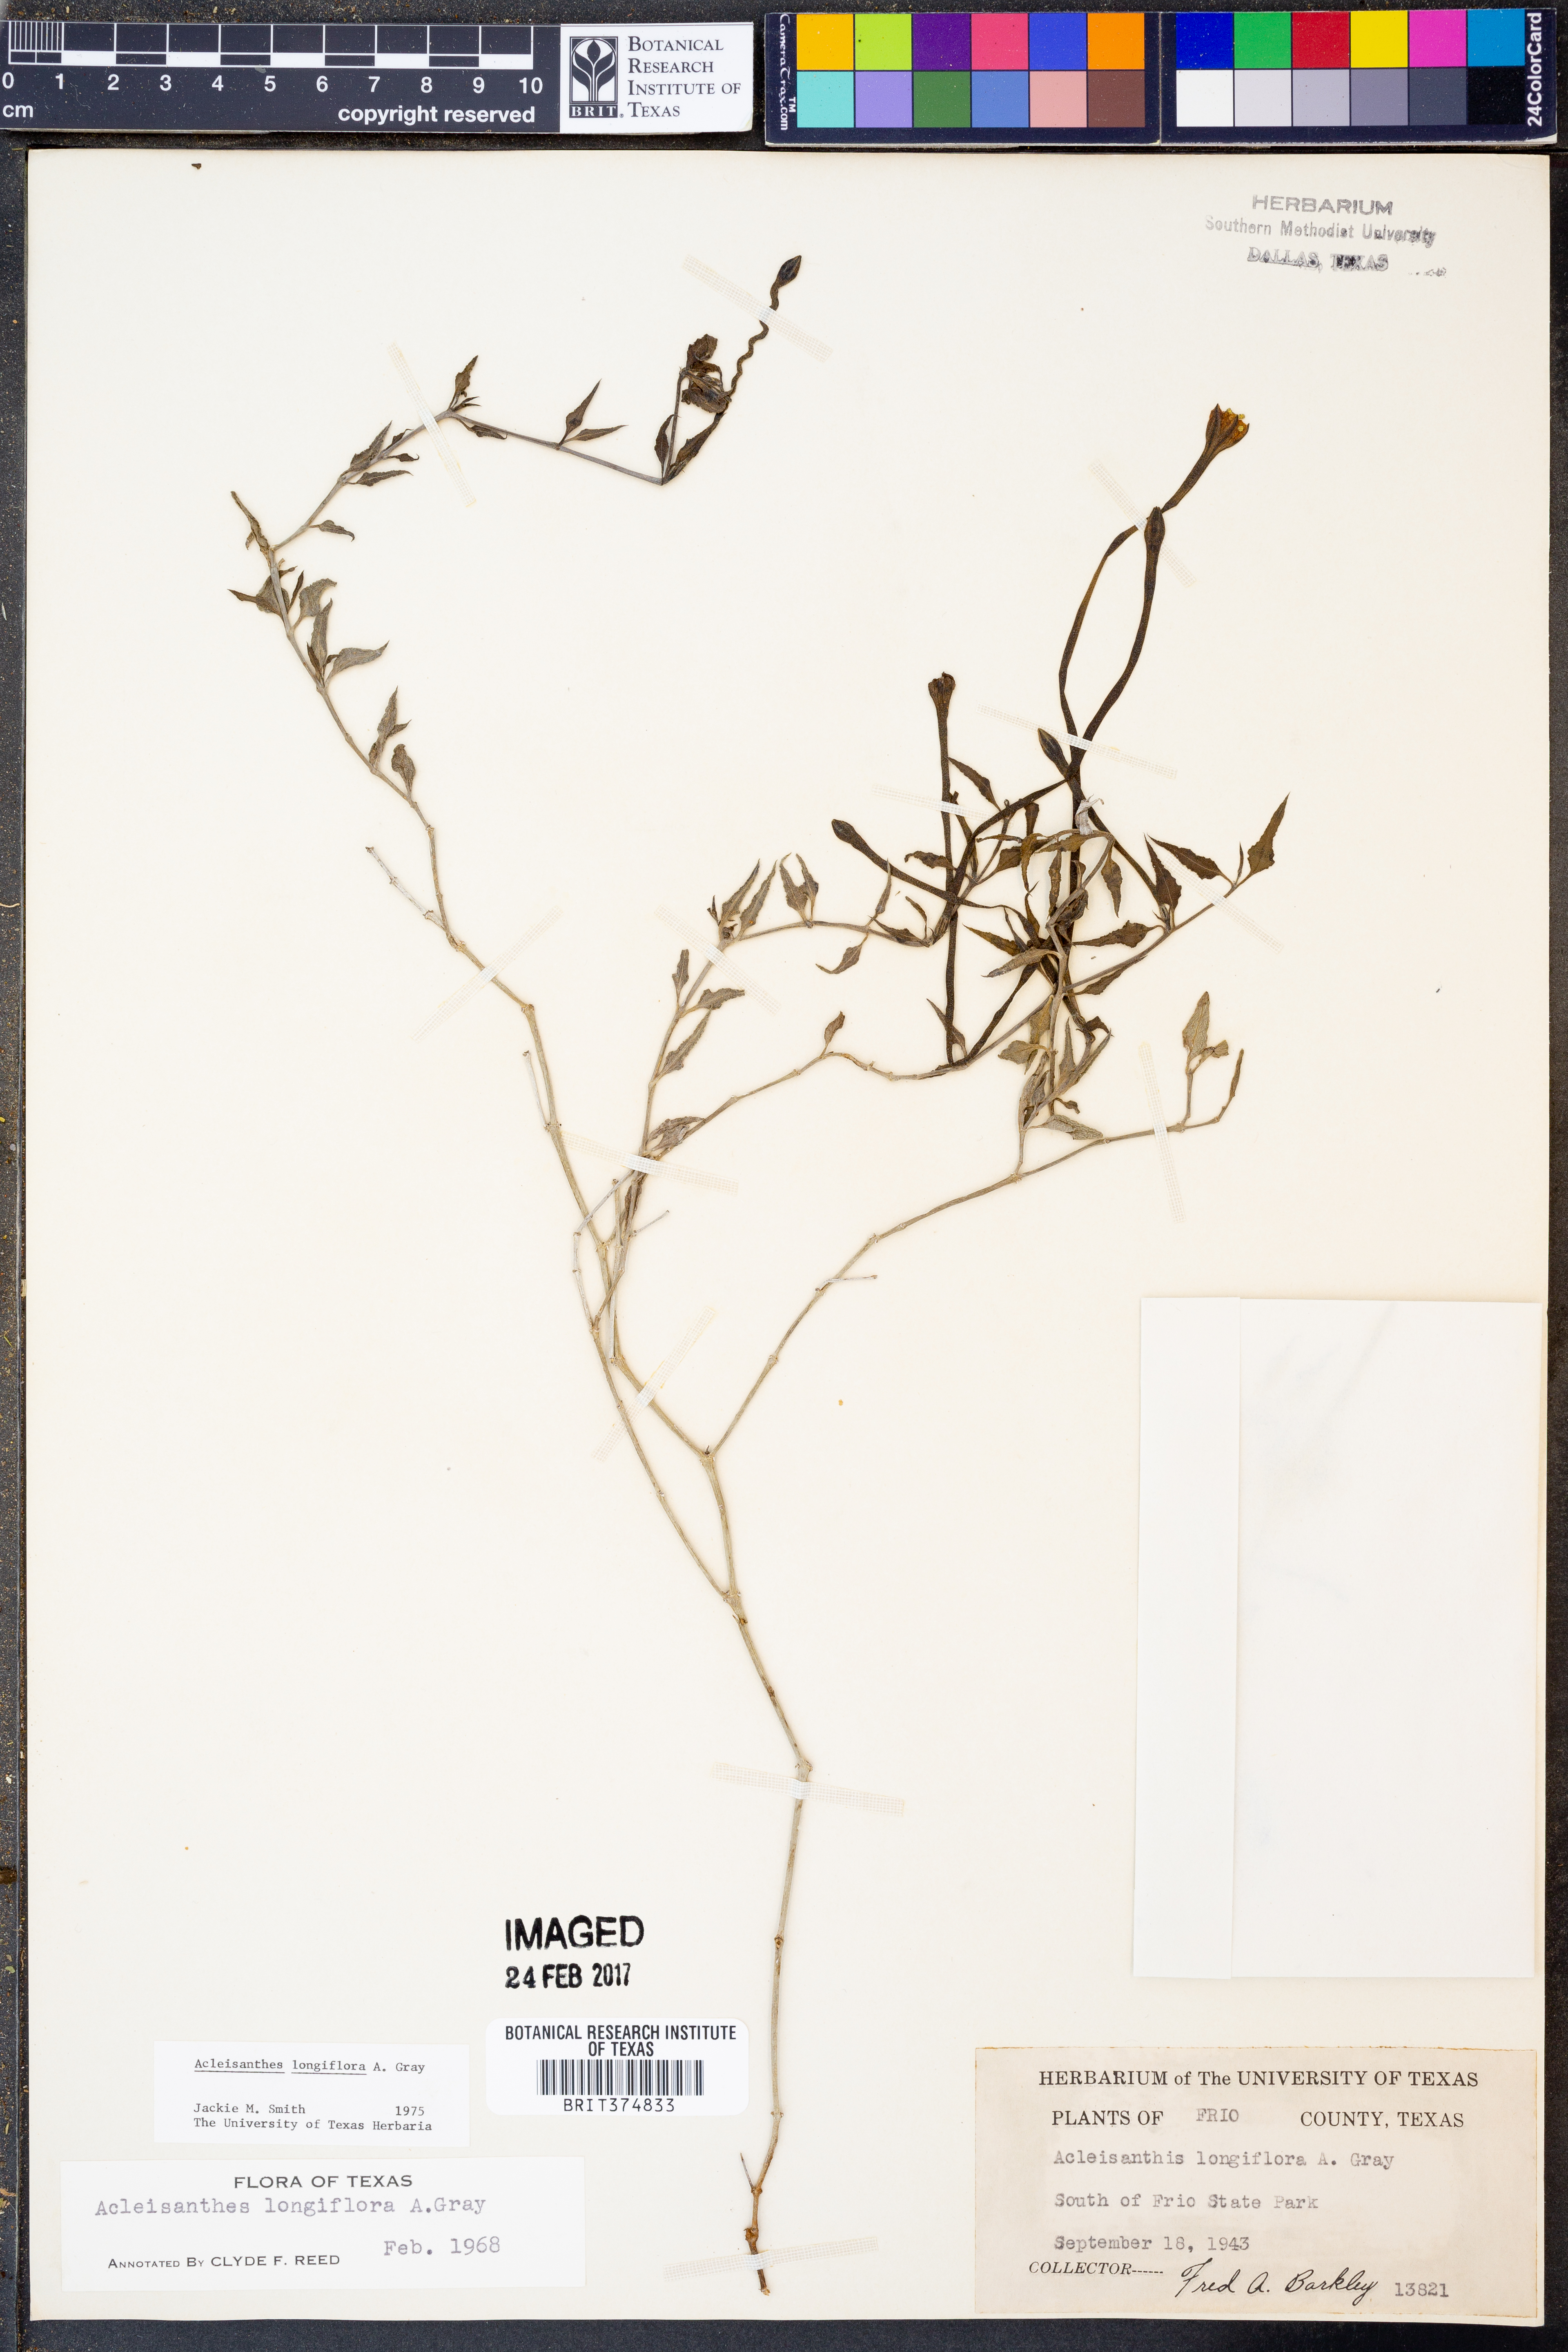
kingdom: Plantae
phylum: Tracheophyta
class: Magnoliopsida
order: Caryophyllales
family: Nyctaginaceae
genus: Acleisanthes
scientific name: Acleisanthes longiflora
